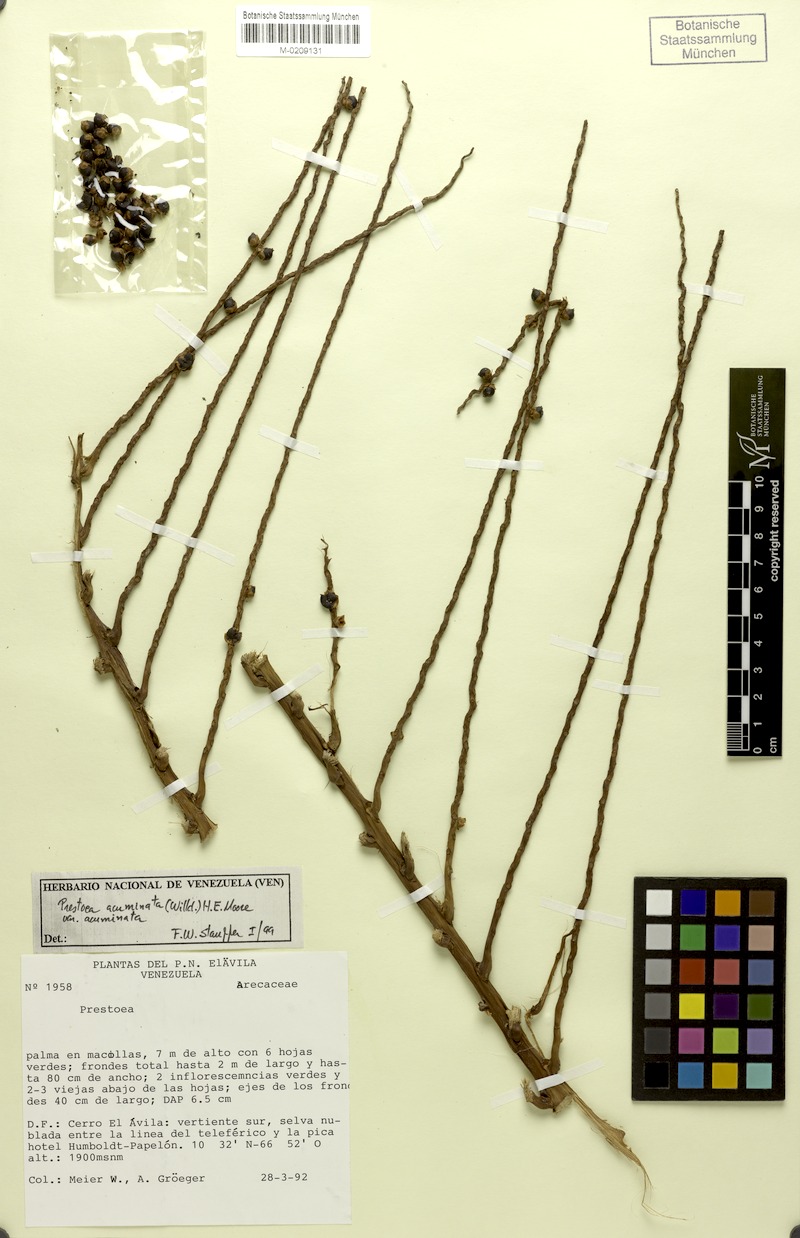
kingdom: Plantae
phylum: Tracheophyta
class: Liliopsida
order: Arecales
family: Arecaceae
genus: Prestoea
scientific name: Prestoea acuminata
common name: Sierran palm
